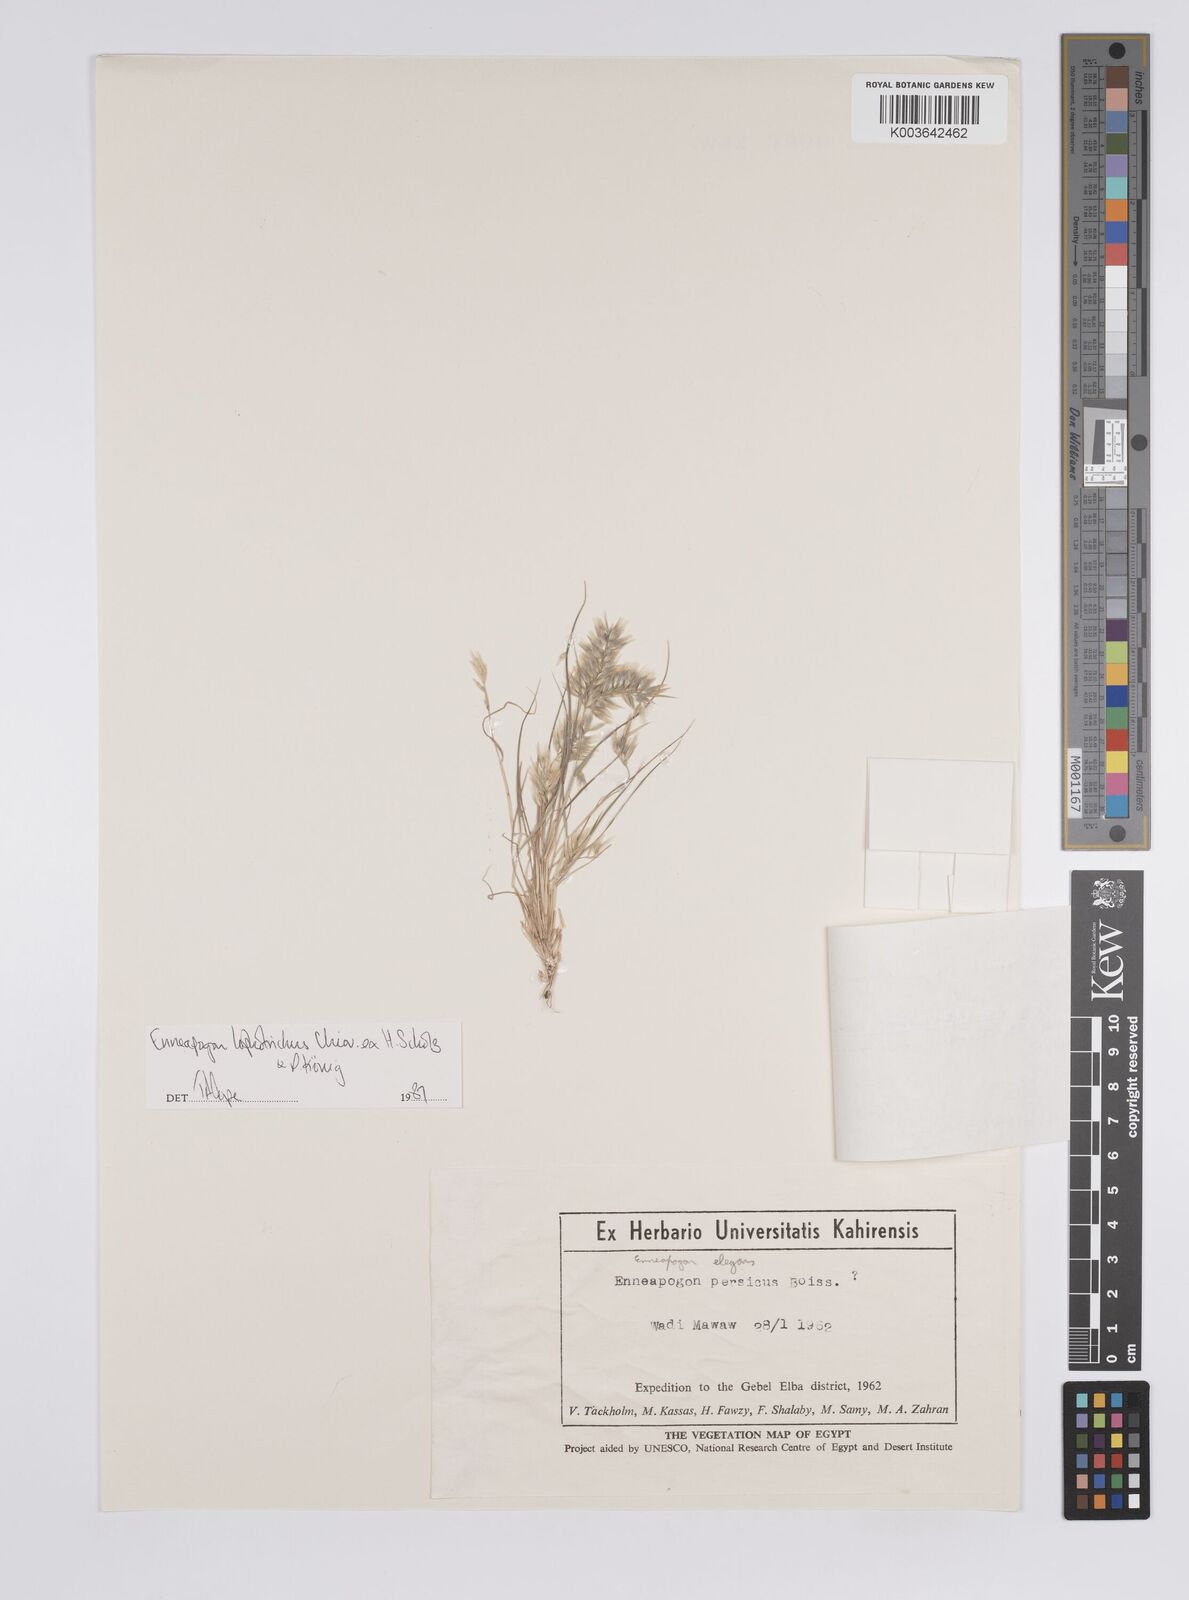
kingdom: Plantae
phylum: Tracheophyta
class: Liliopsida
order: Poales
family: Poaceae
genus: Enneapogon
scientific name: Enneapogon lophotrichus
